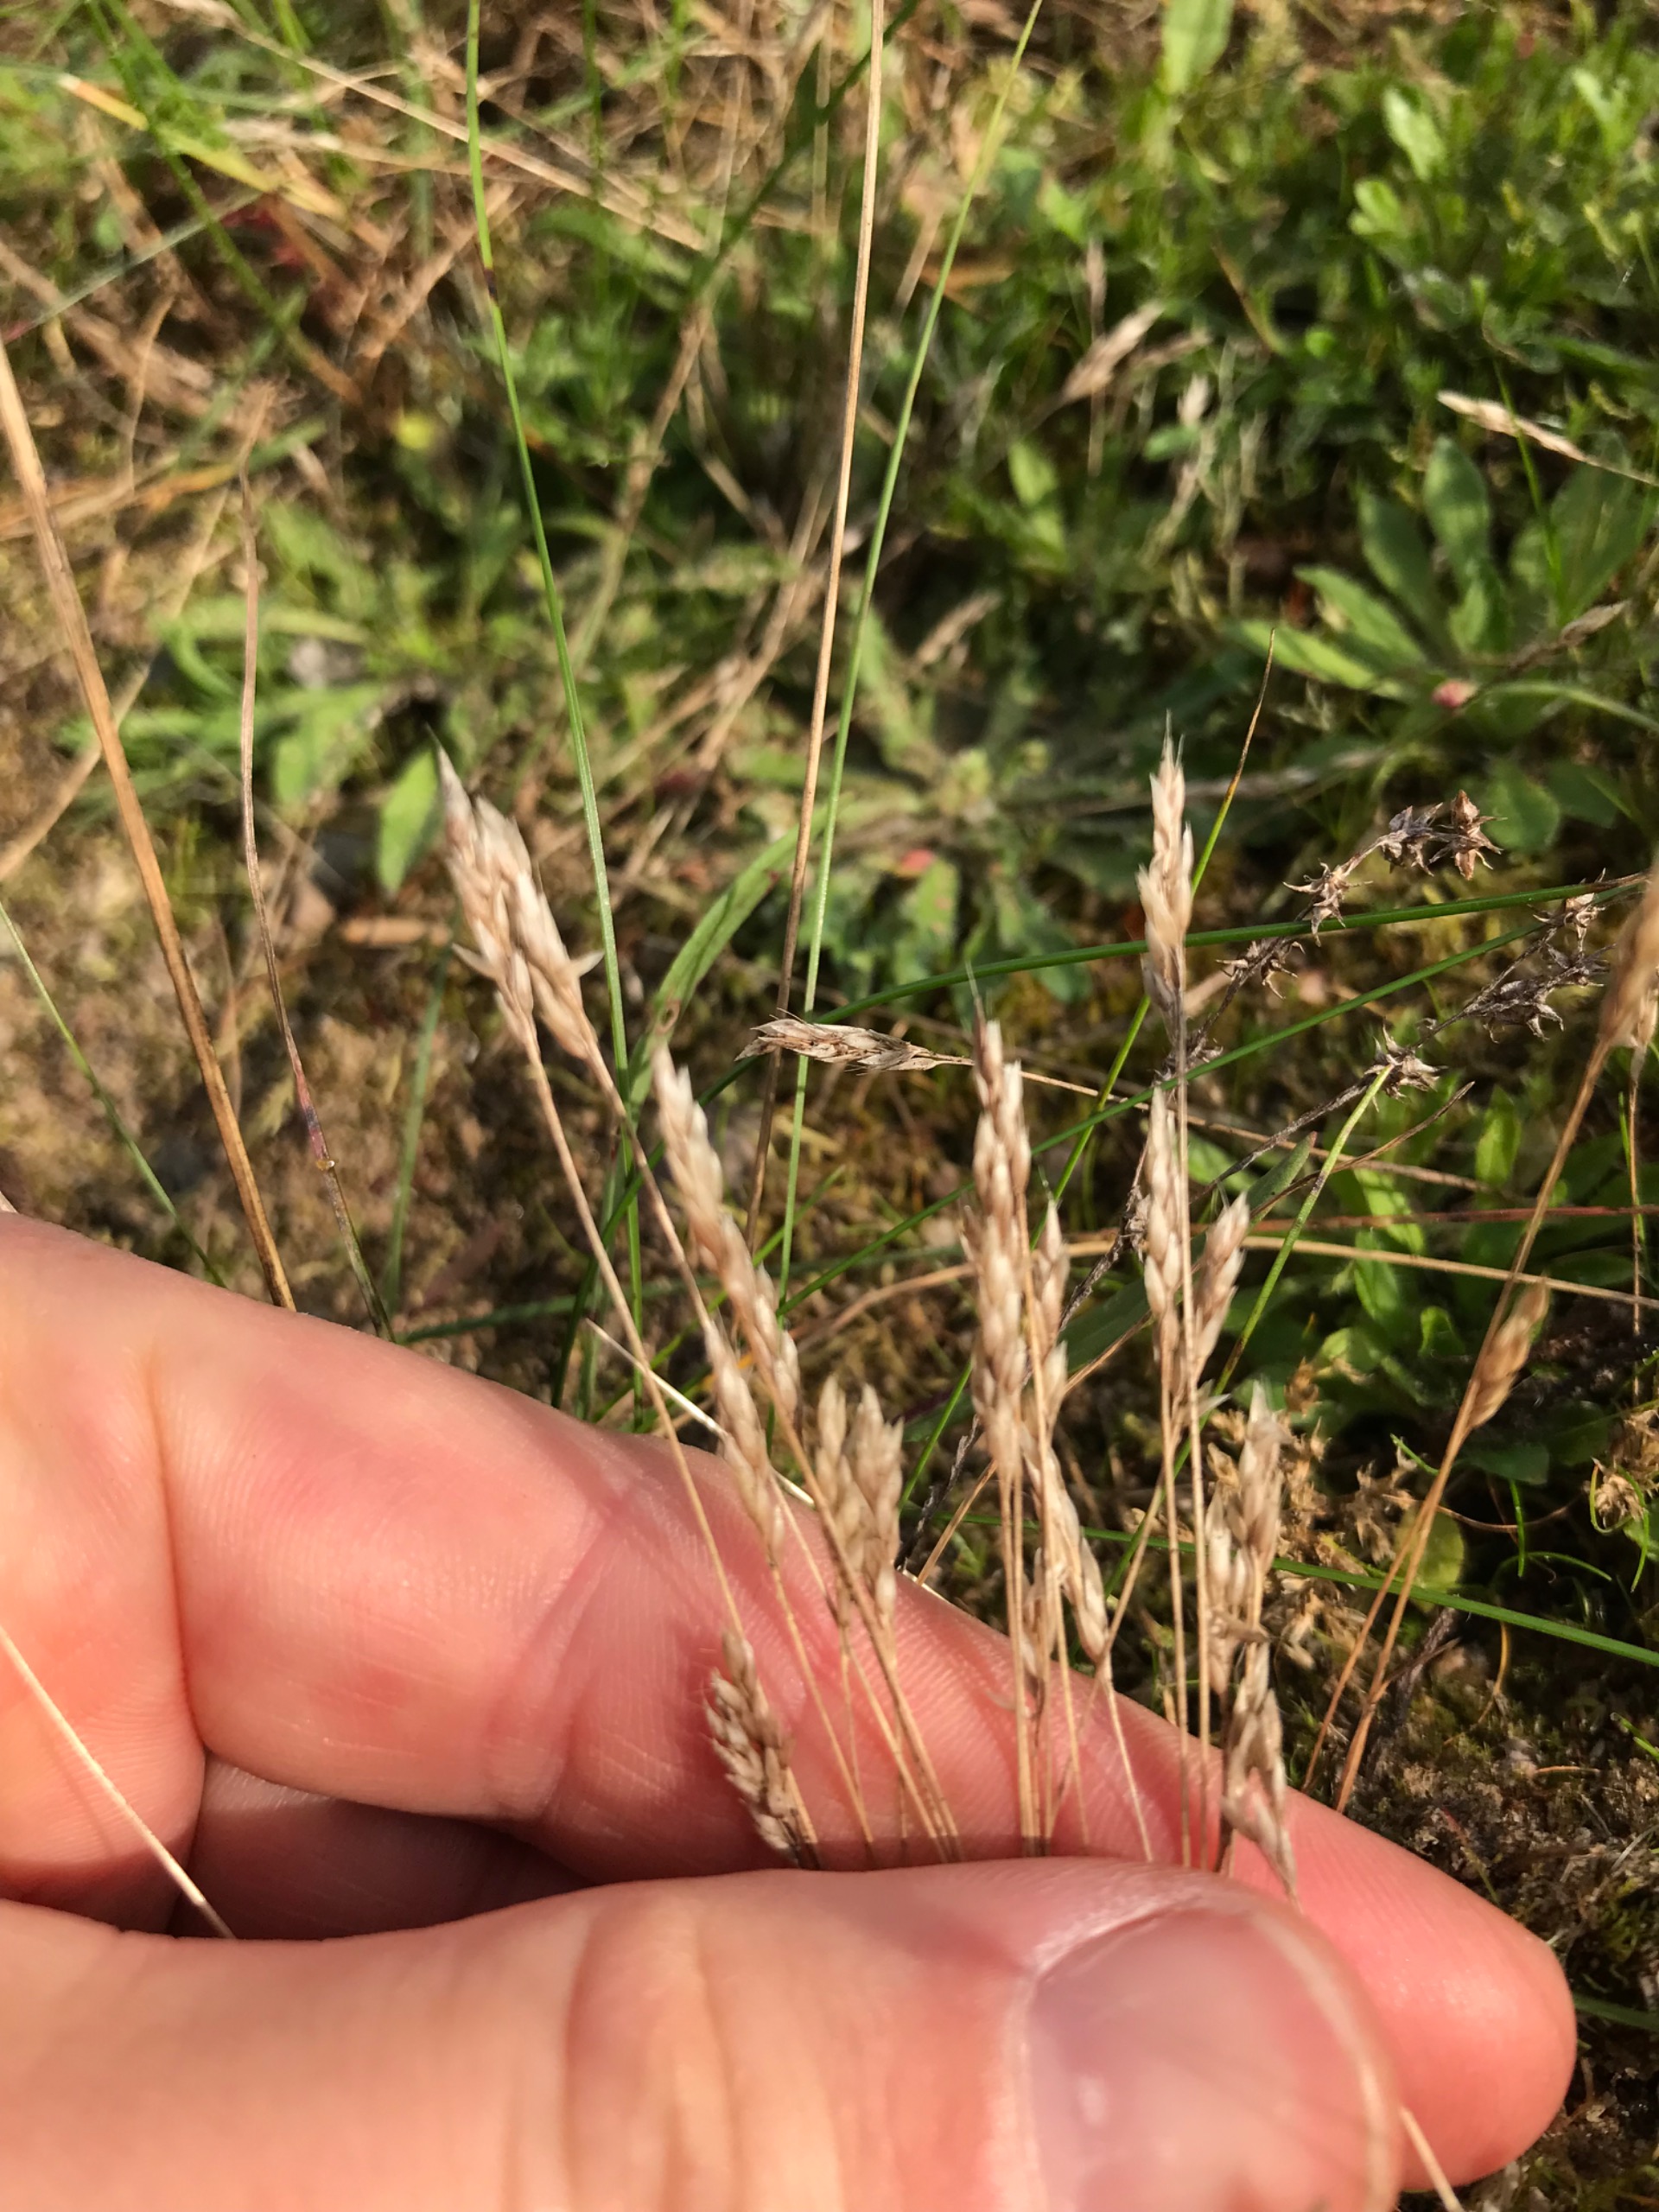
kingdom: Plantae
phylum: Tracheophyta
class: Liliopsida
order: Poales
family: Poaceae
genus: Aira
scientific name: Aira praecox
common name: Tidlig dværgbunke
